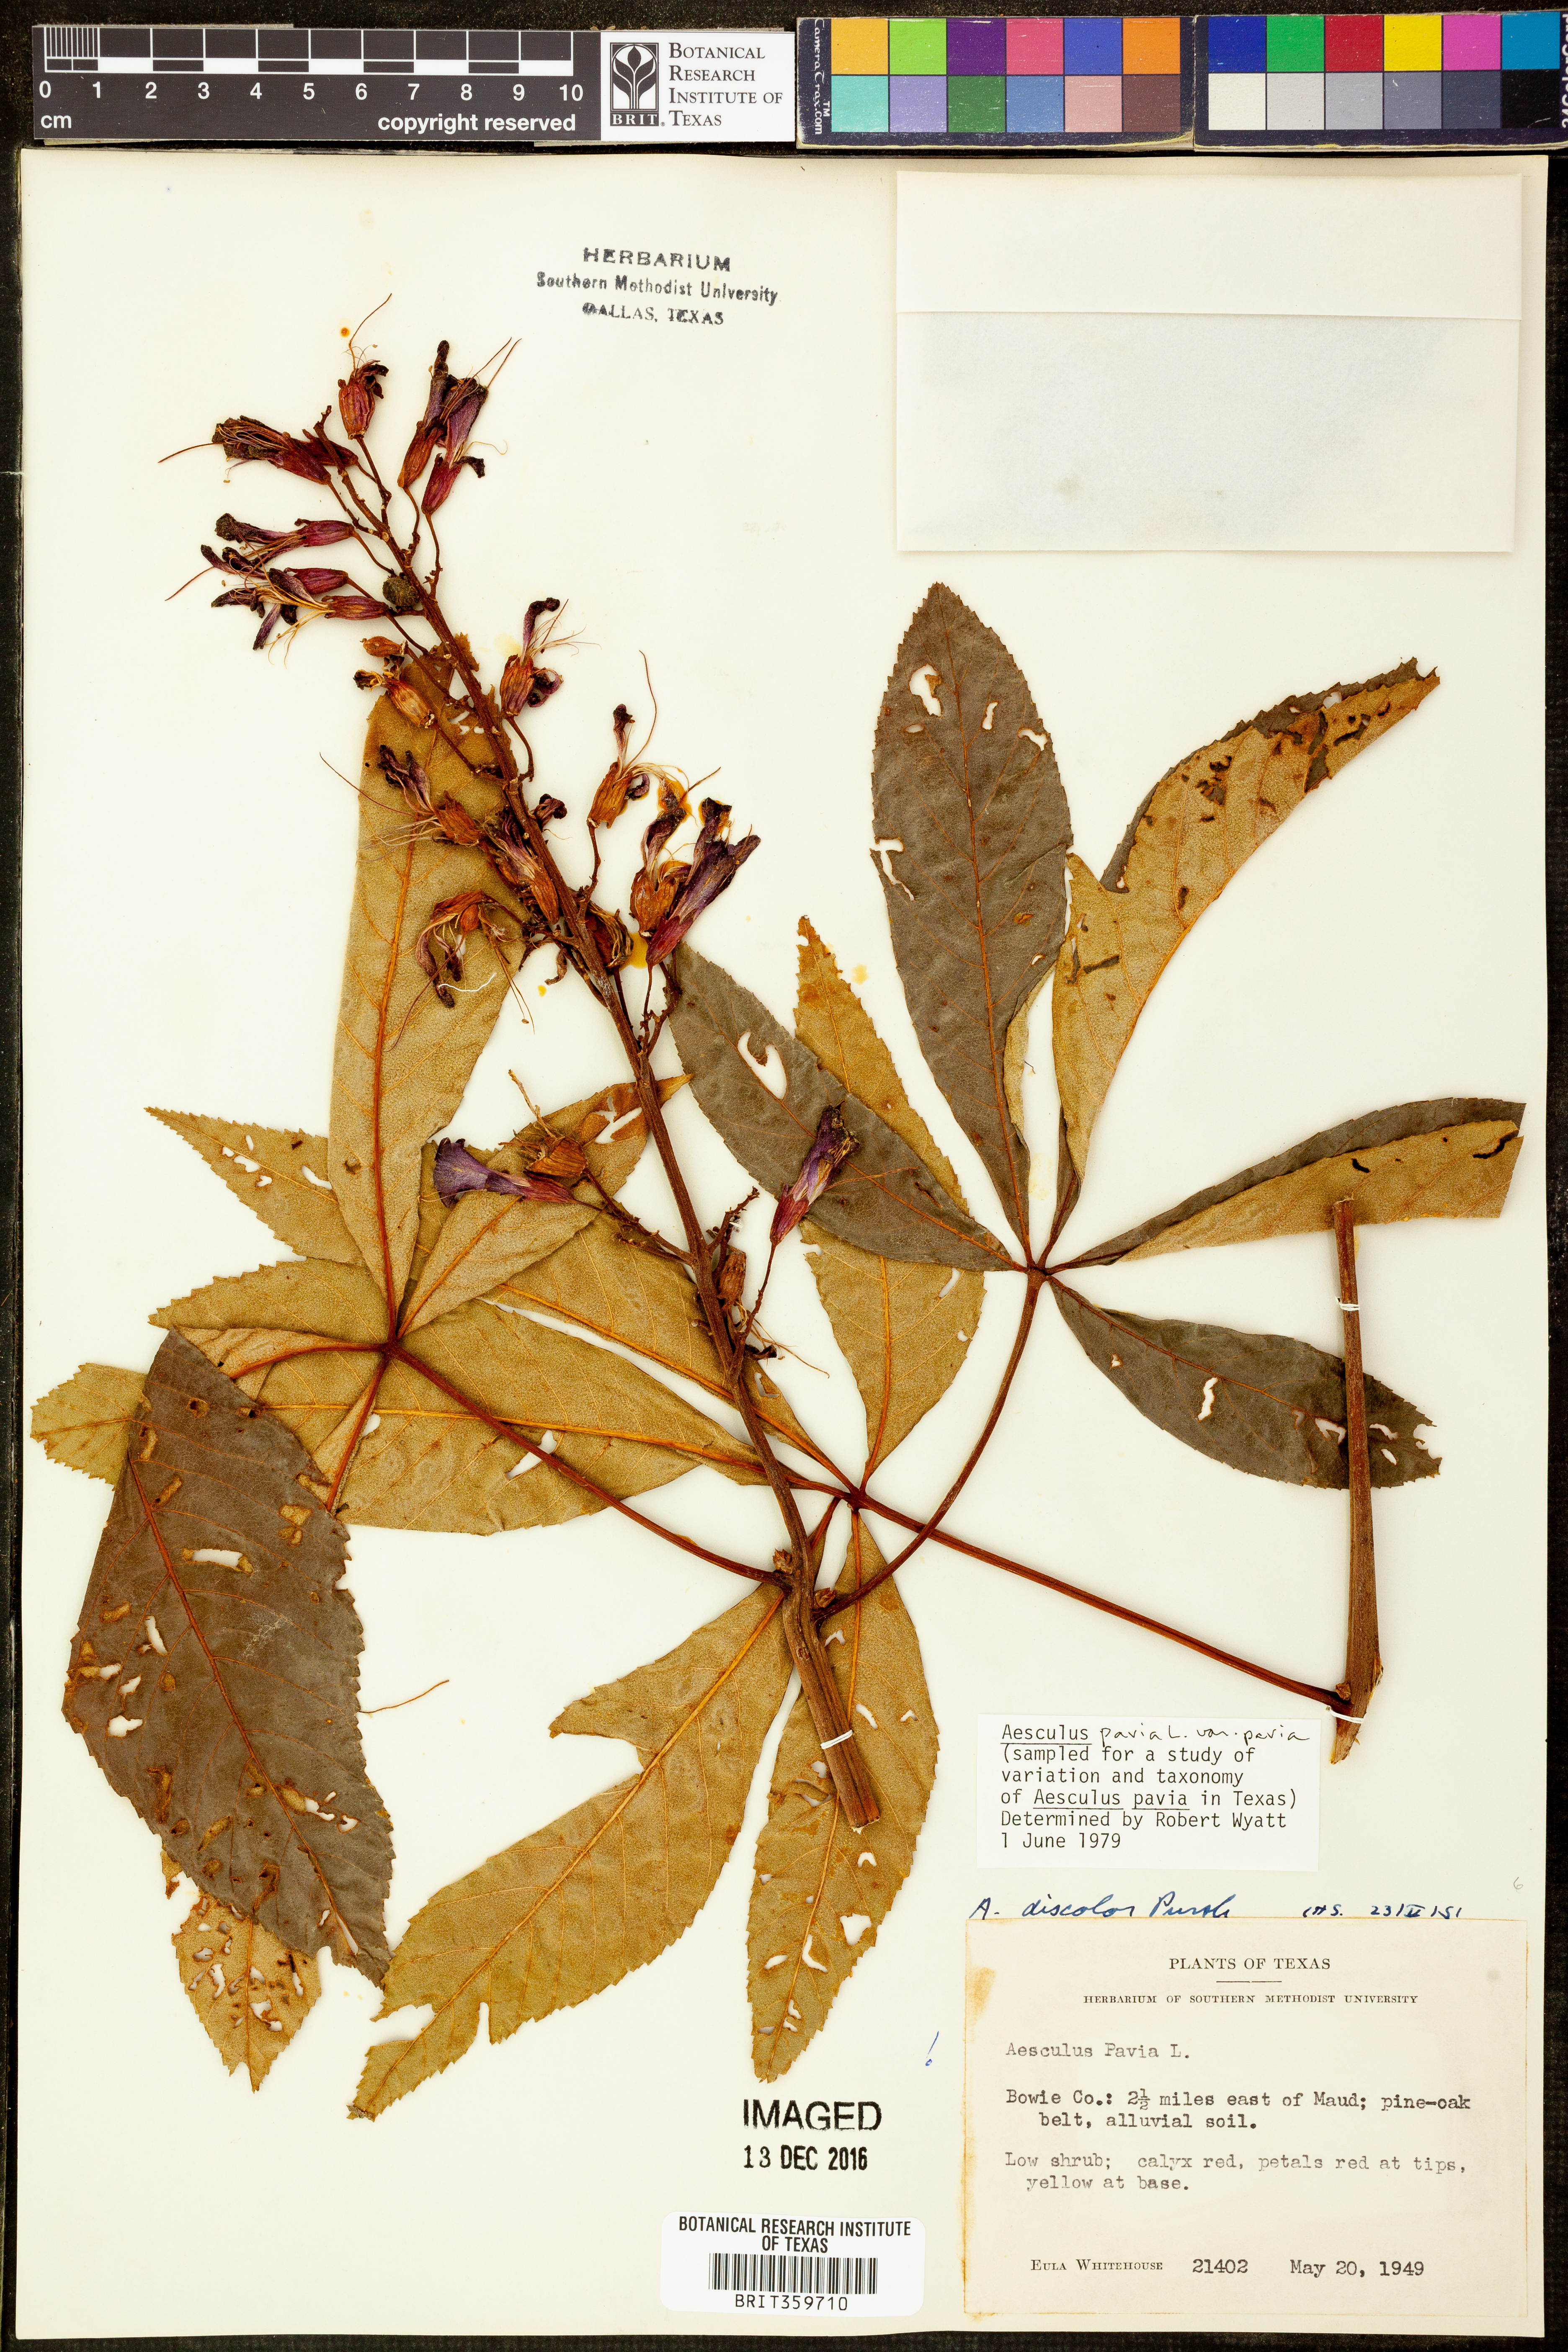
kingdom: Plantae
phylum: Tracheophyta
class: Magnoliopsida
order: Sapindales
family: Sapindaceae
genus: Aesculus
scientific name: Aesculus pavia
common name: Red buckeye
